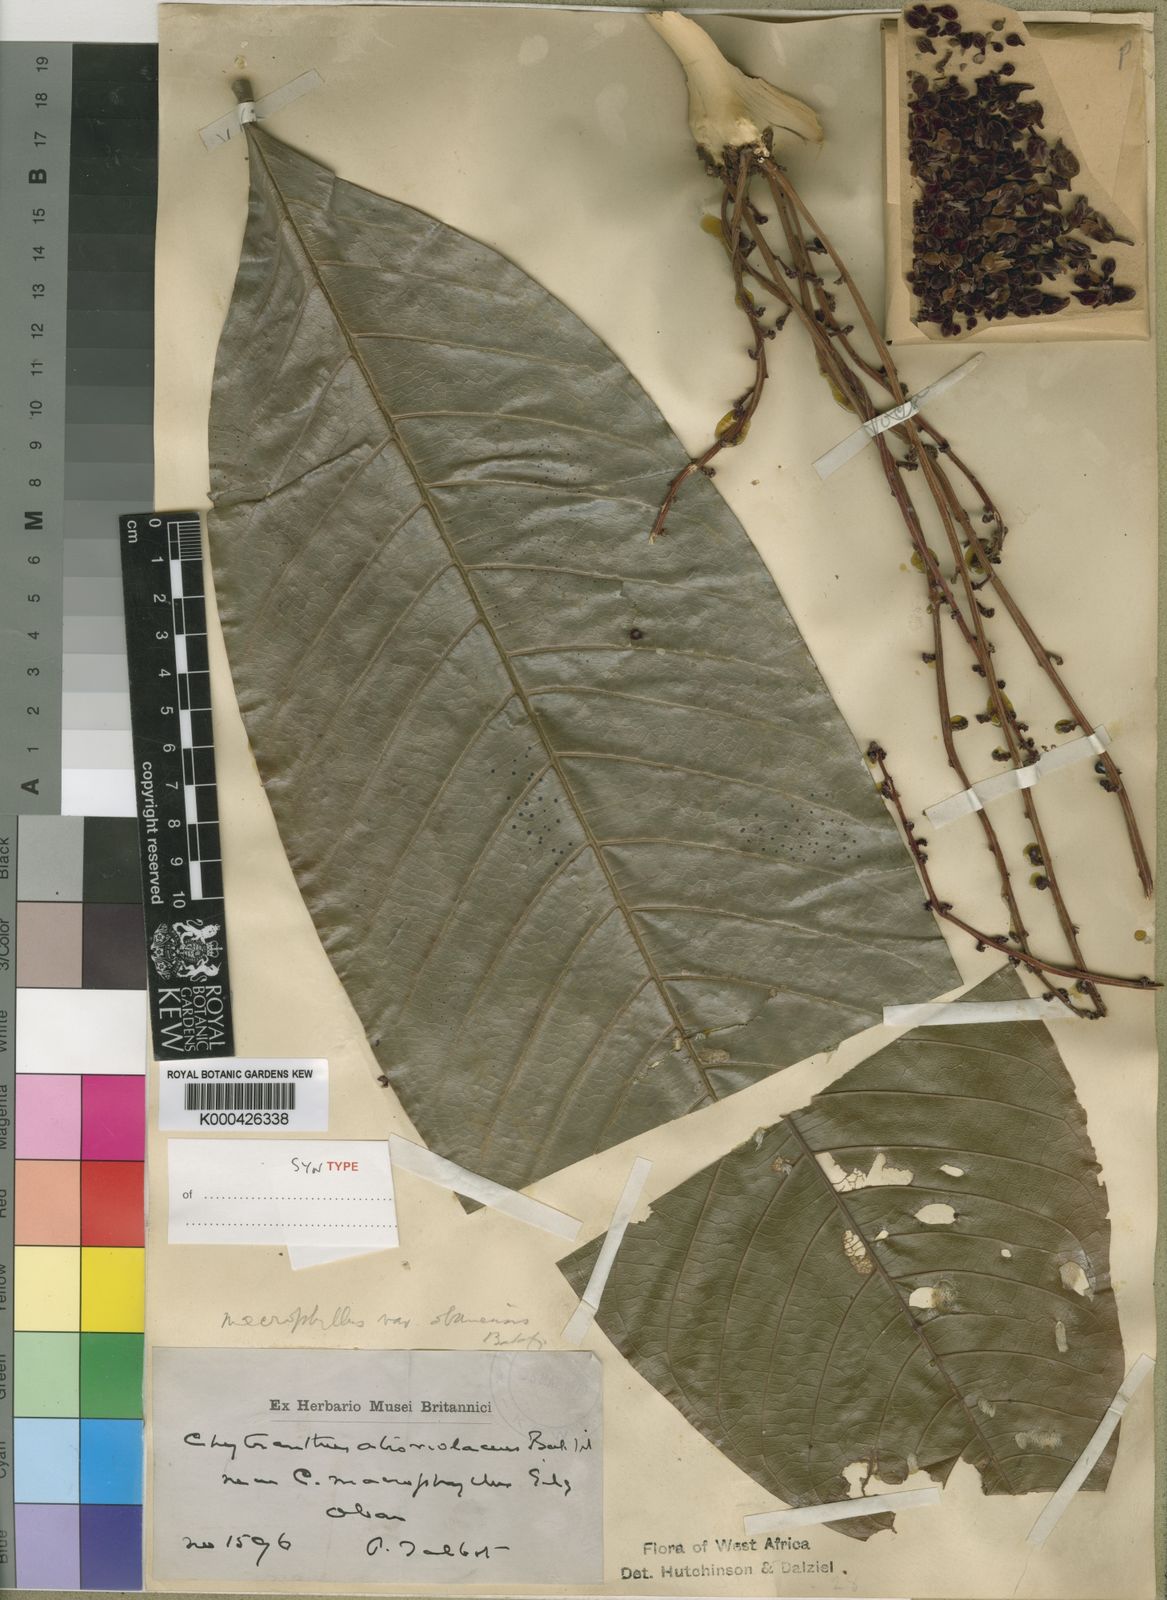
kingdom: Plantae
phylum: Tracheophyta
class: Magnoliopsida
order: Sapindales
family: Sapindaceae
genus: Chytranthus
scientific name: Chytranthus atroviolaceus
